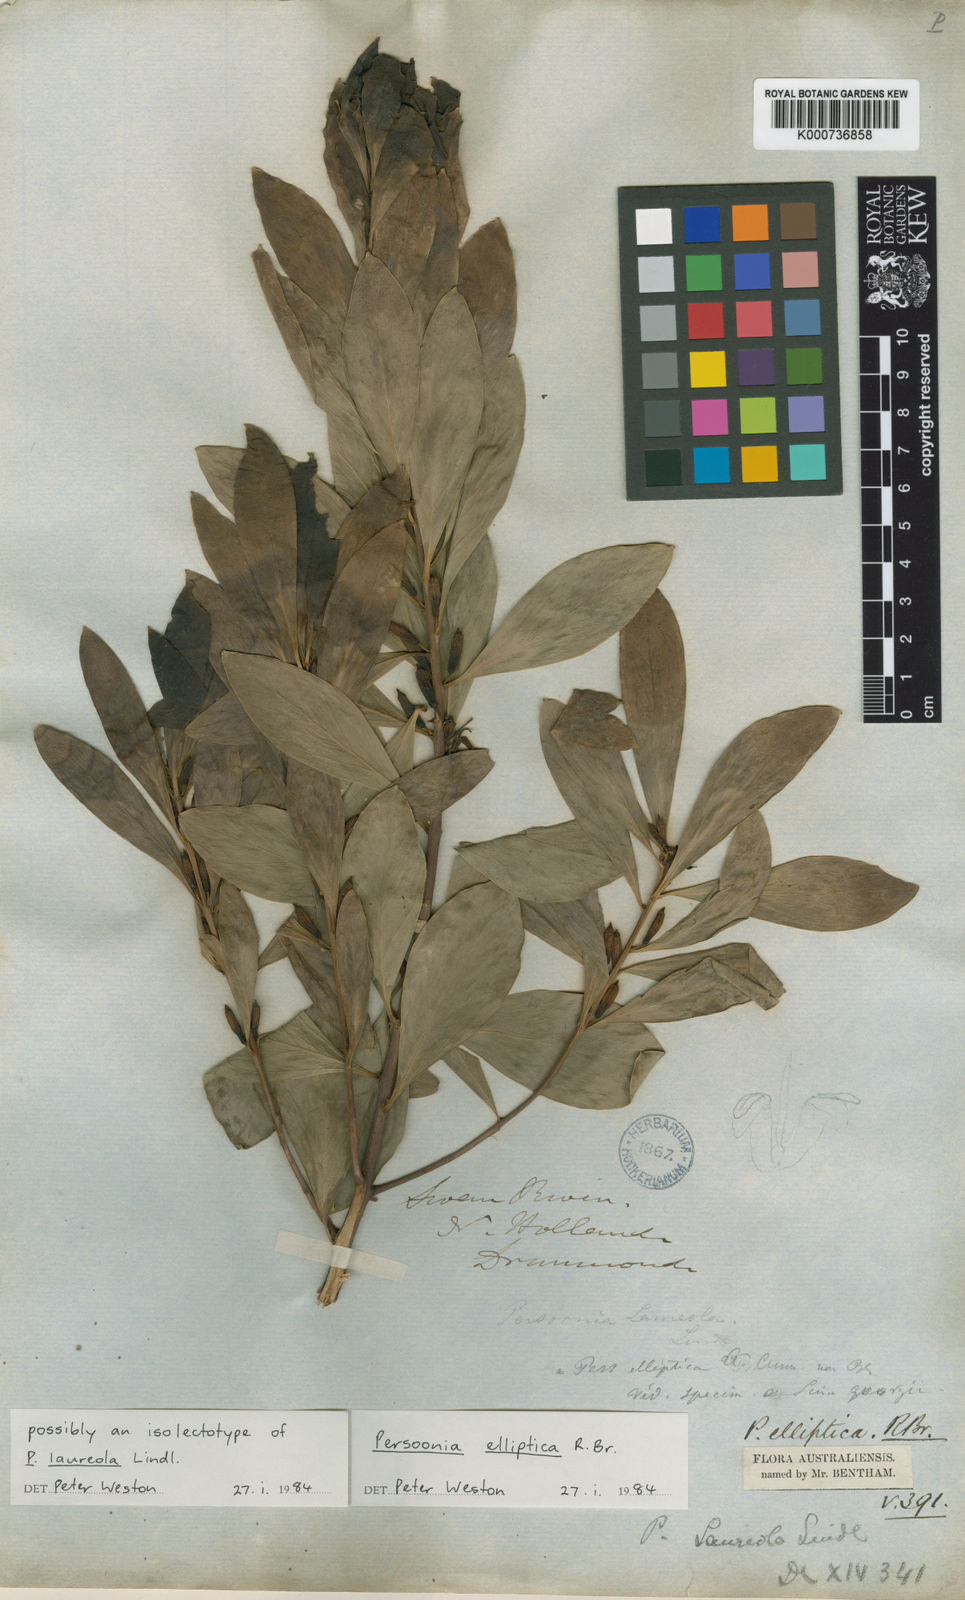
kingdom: Plantae
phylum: Tracheophyta
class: Magnoliopsida
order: Proteales
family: Proteaceae
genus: Persoonia
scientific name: Persoonia elliptica
